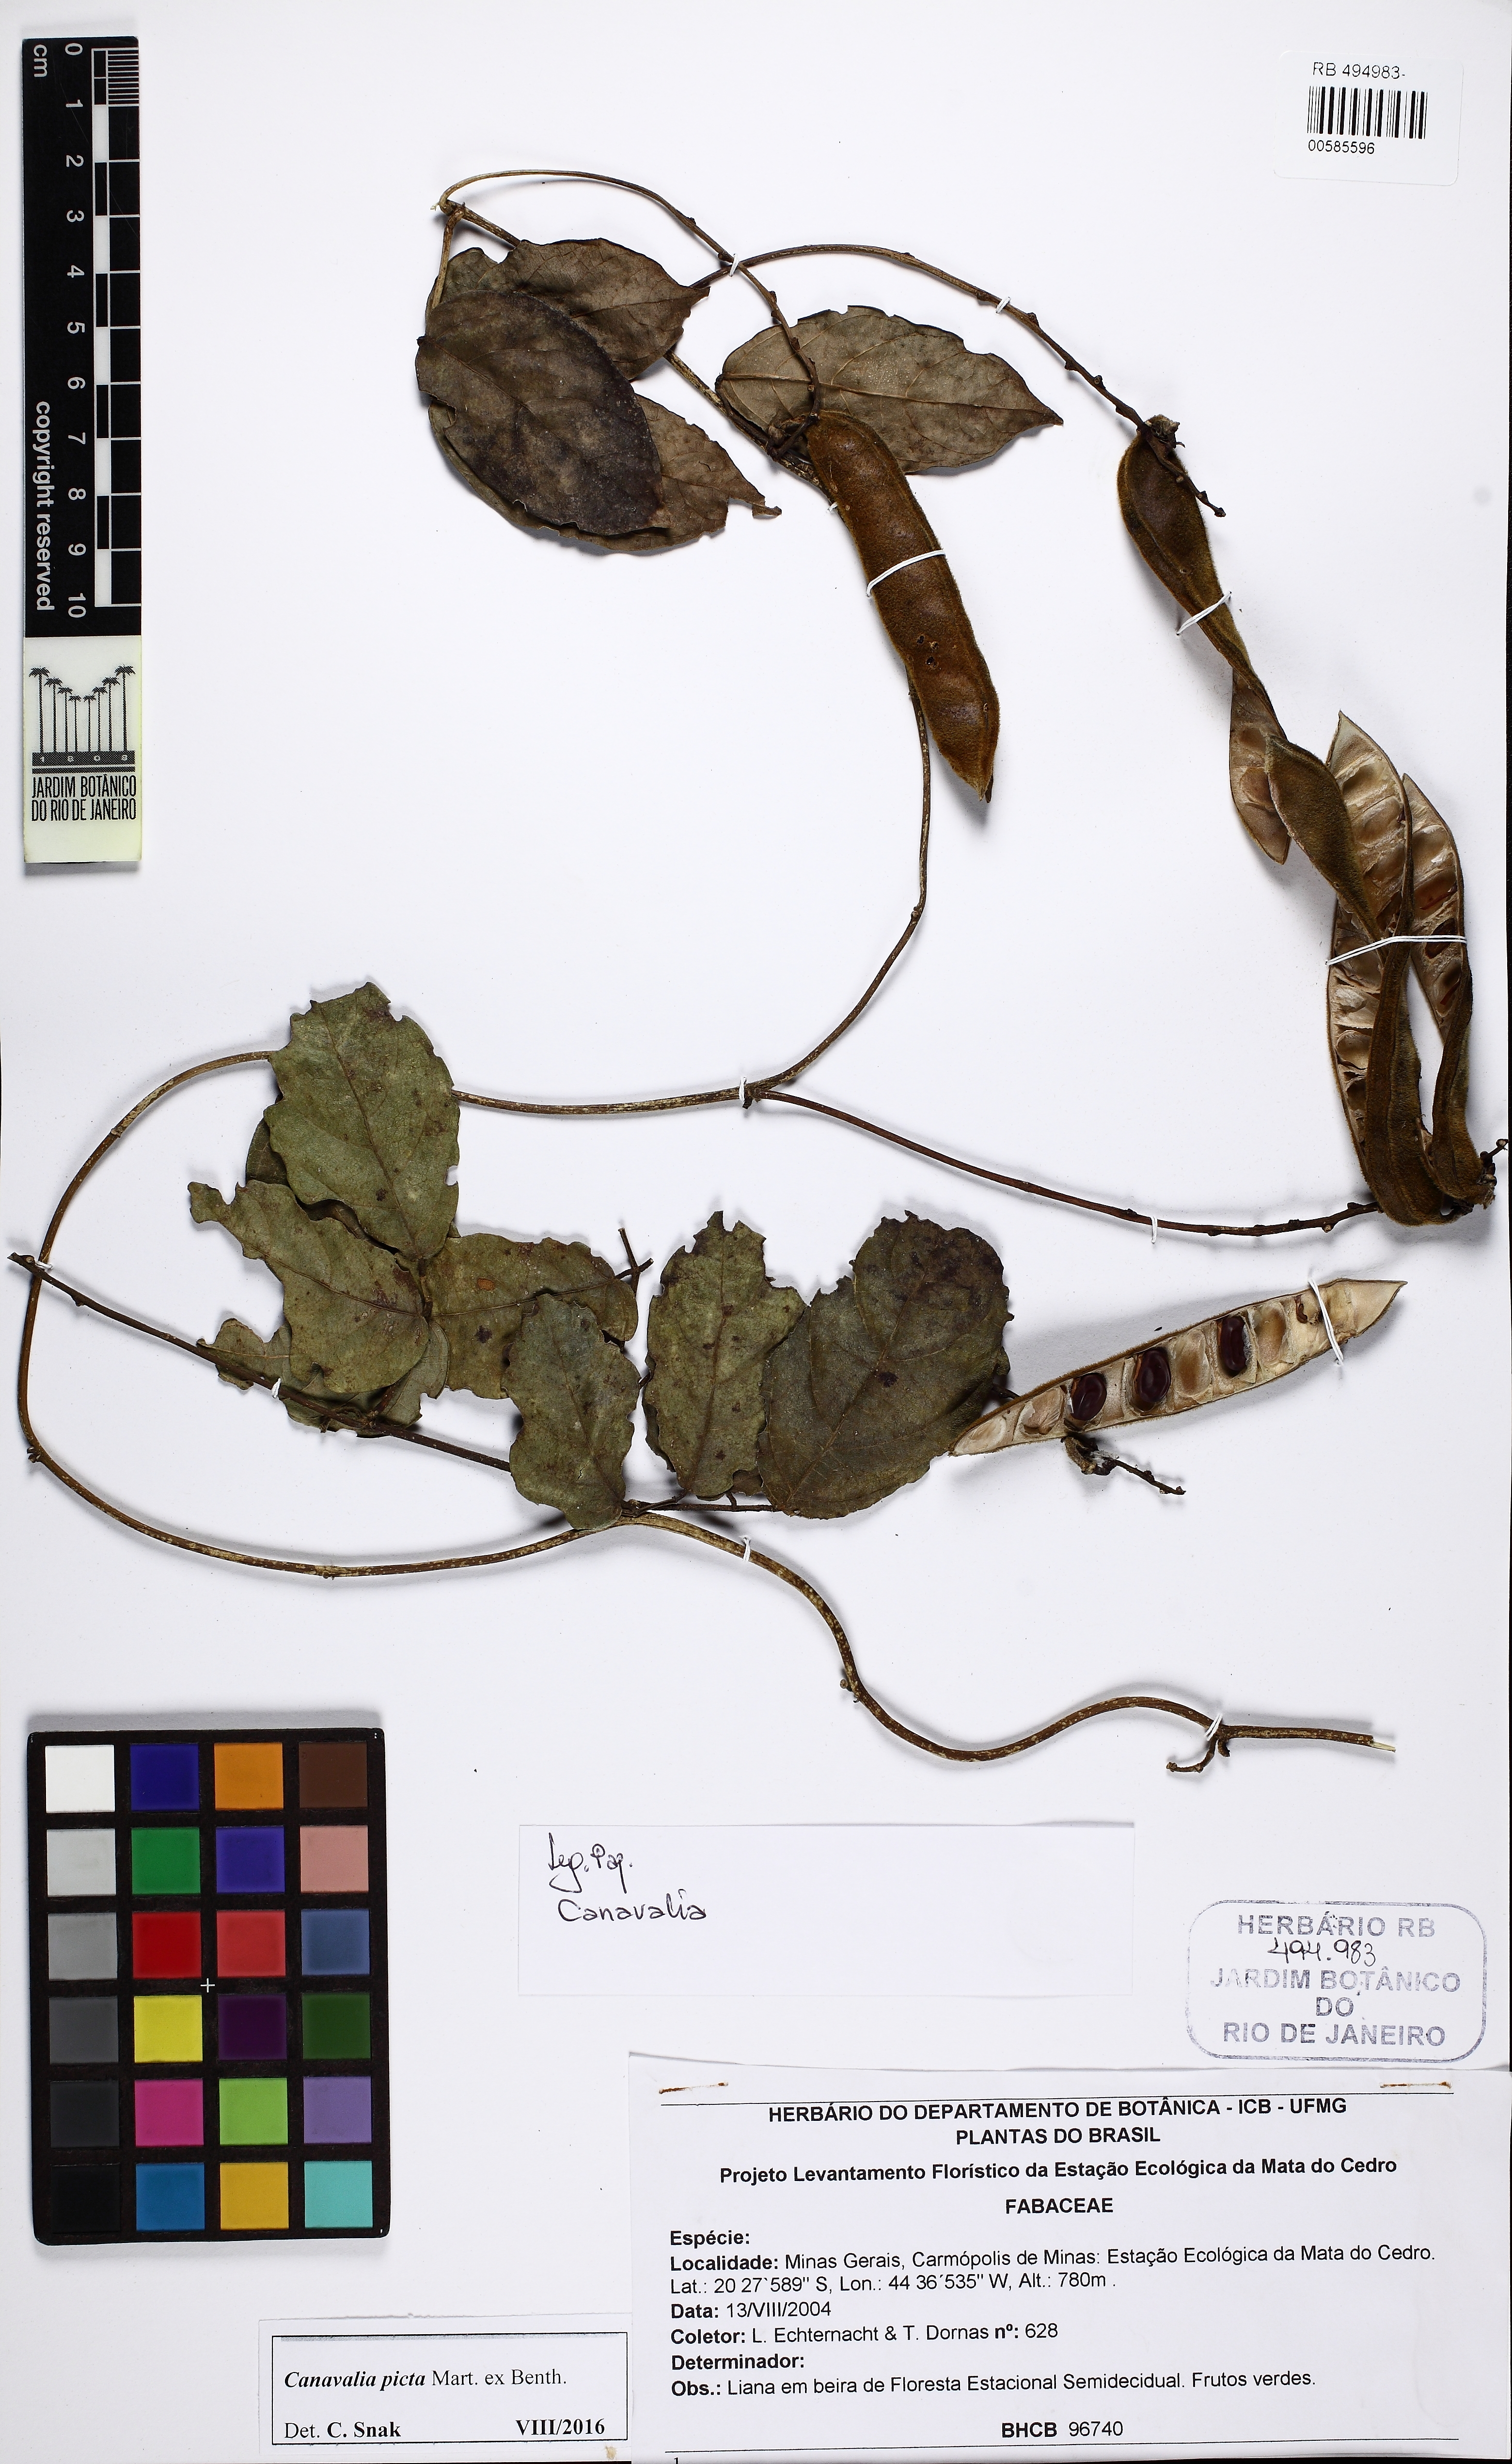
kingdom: Plantae
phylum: Tracheophyta
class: Magnoliopsida
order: Fabales
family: Fabaceae
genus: Canavalia
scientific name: Canavalia picta
